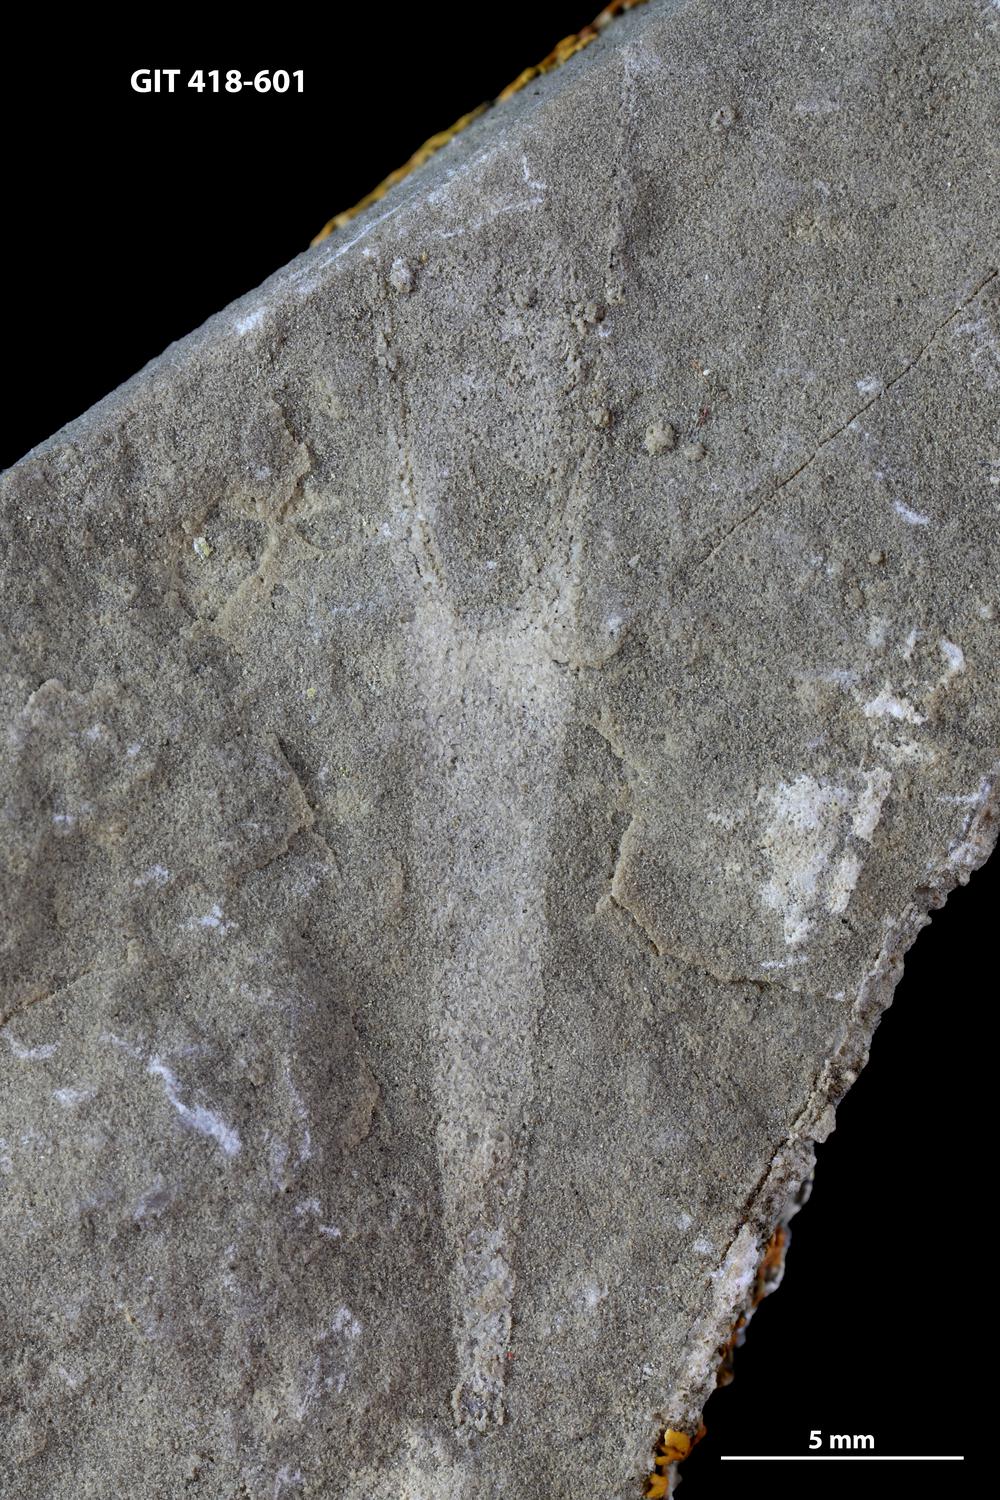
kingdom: Animalia
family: Hyolithidae
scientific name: Hyolithidae
